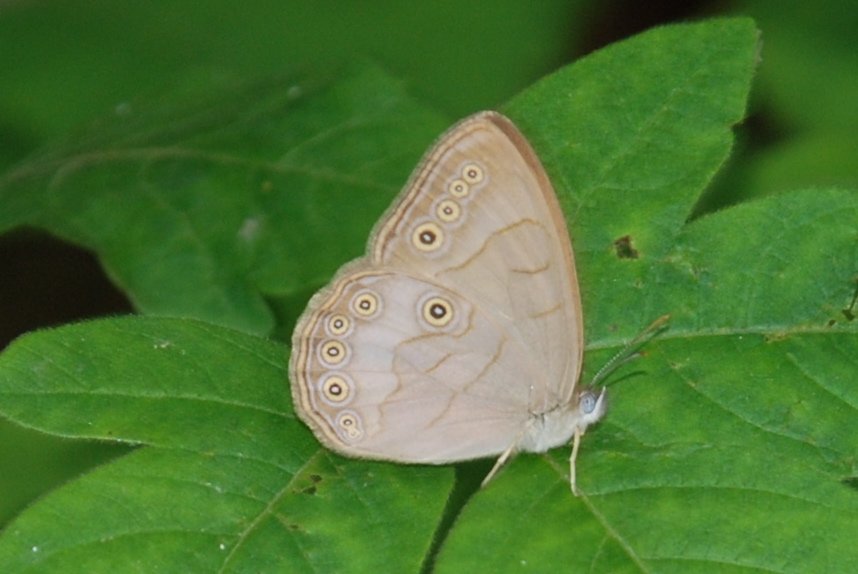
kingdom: Animalia
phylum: Arthropoda
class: Insecta
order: Lepidoptera
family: Nymphalidae
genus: Lethe
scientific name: Lethe eurydice
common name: Appalachian Eyed Brown
